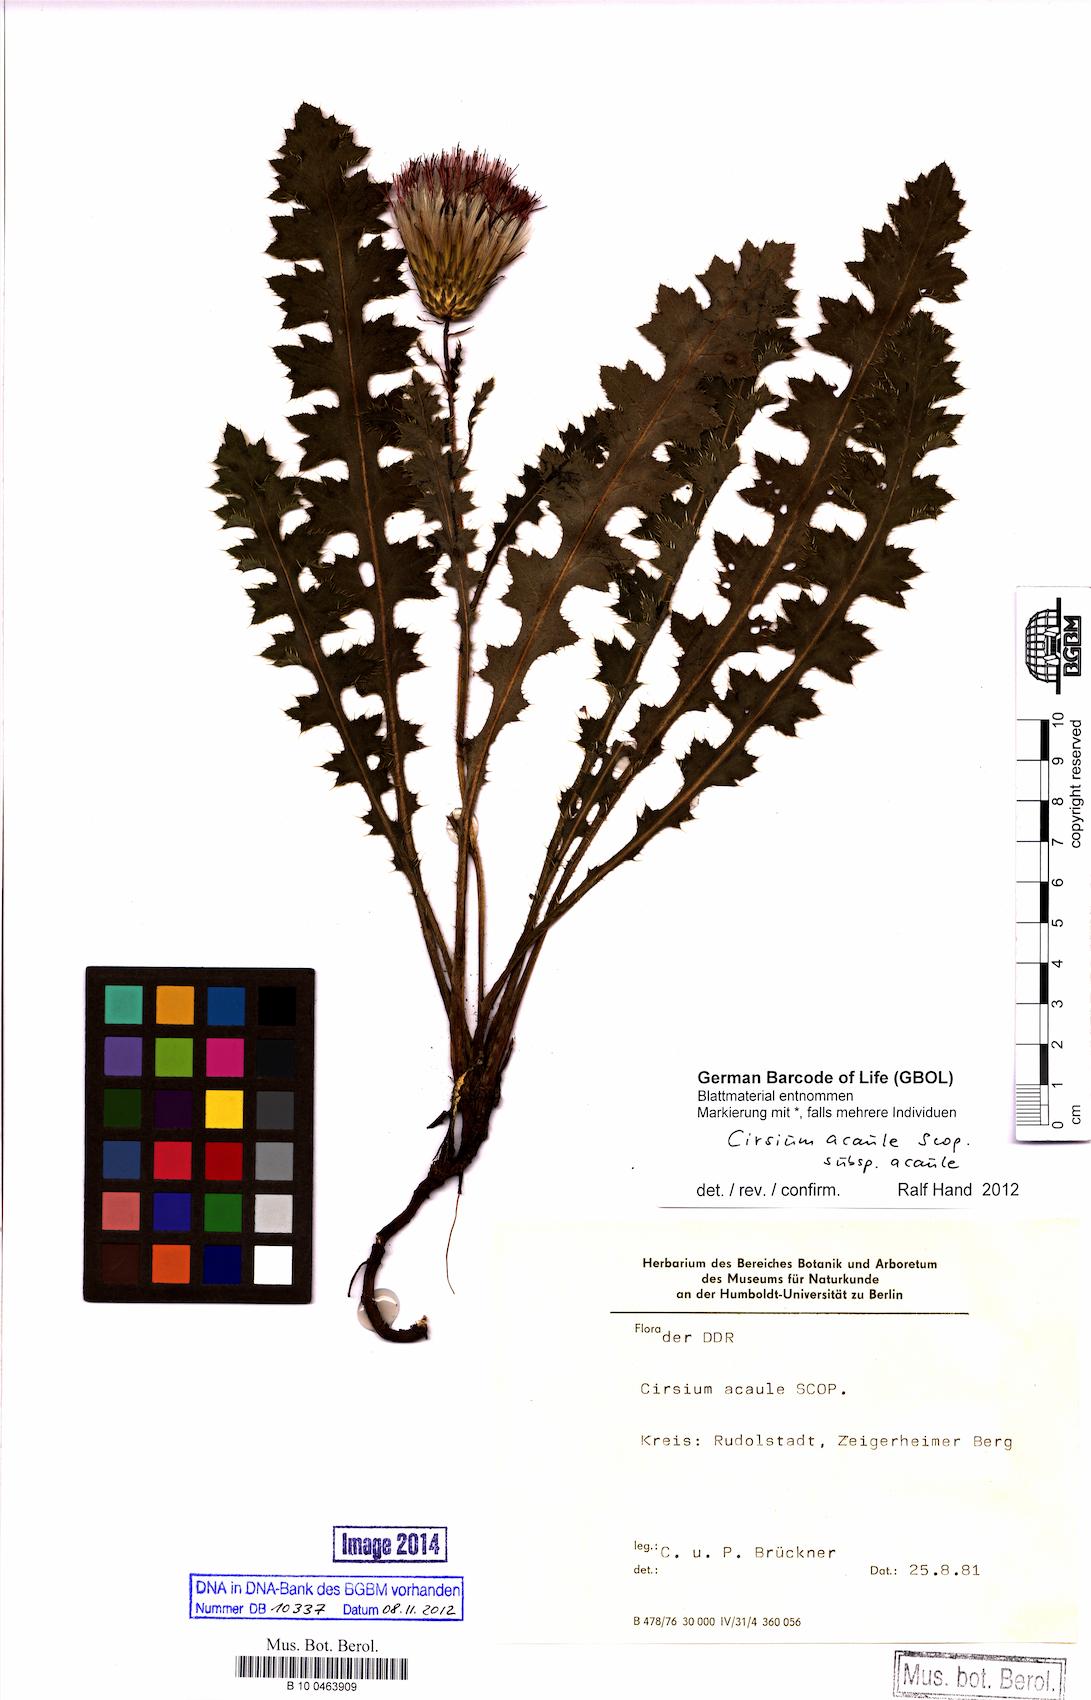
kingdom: Plantae
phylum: Tracheophyta
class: Magnoliopsida
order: Asterales
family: Asteraceae
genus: Cirsium
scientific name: Cirsium acaule
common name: Dwarf thistle
